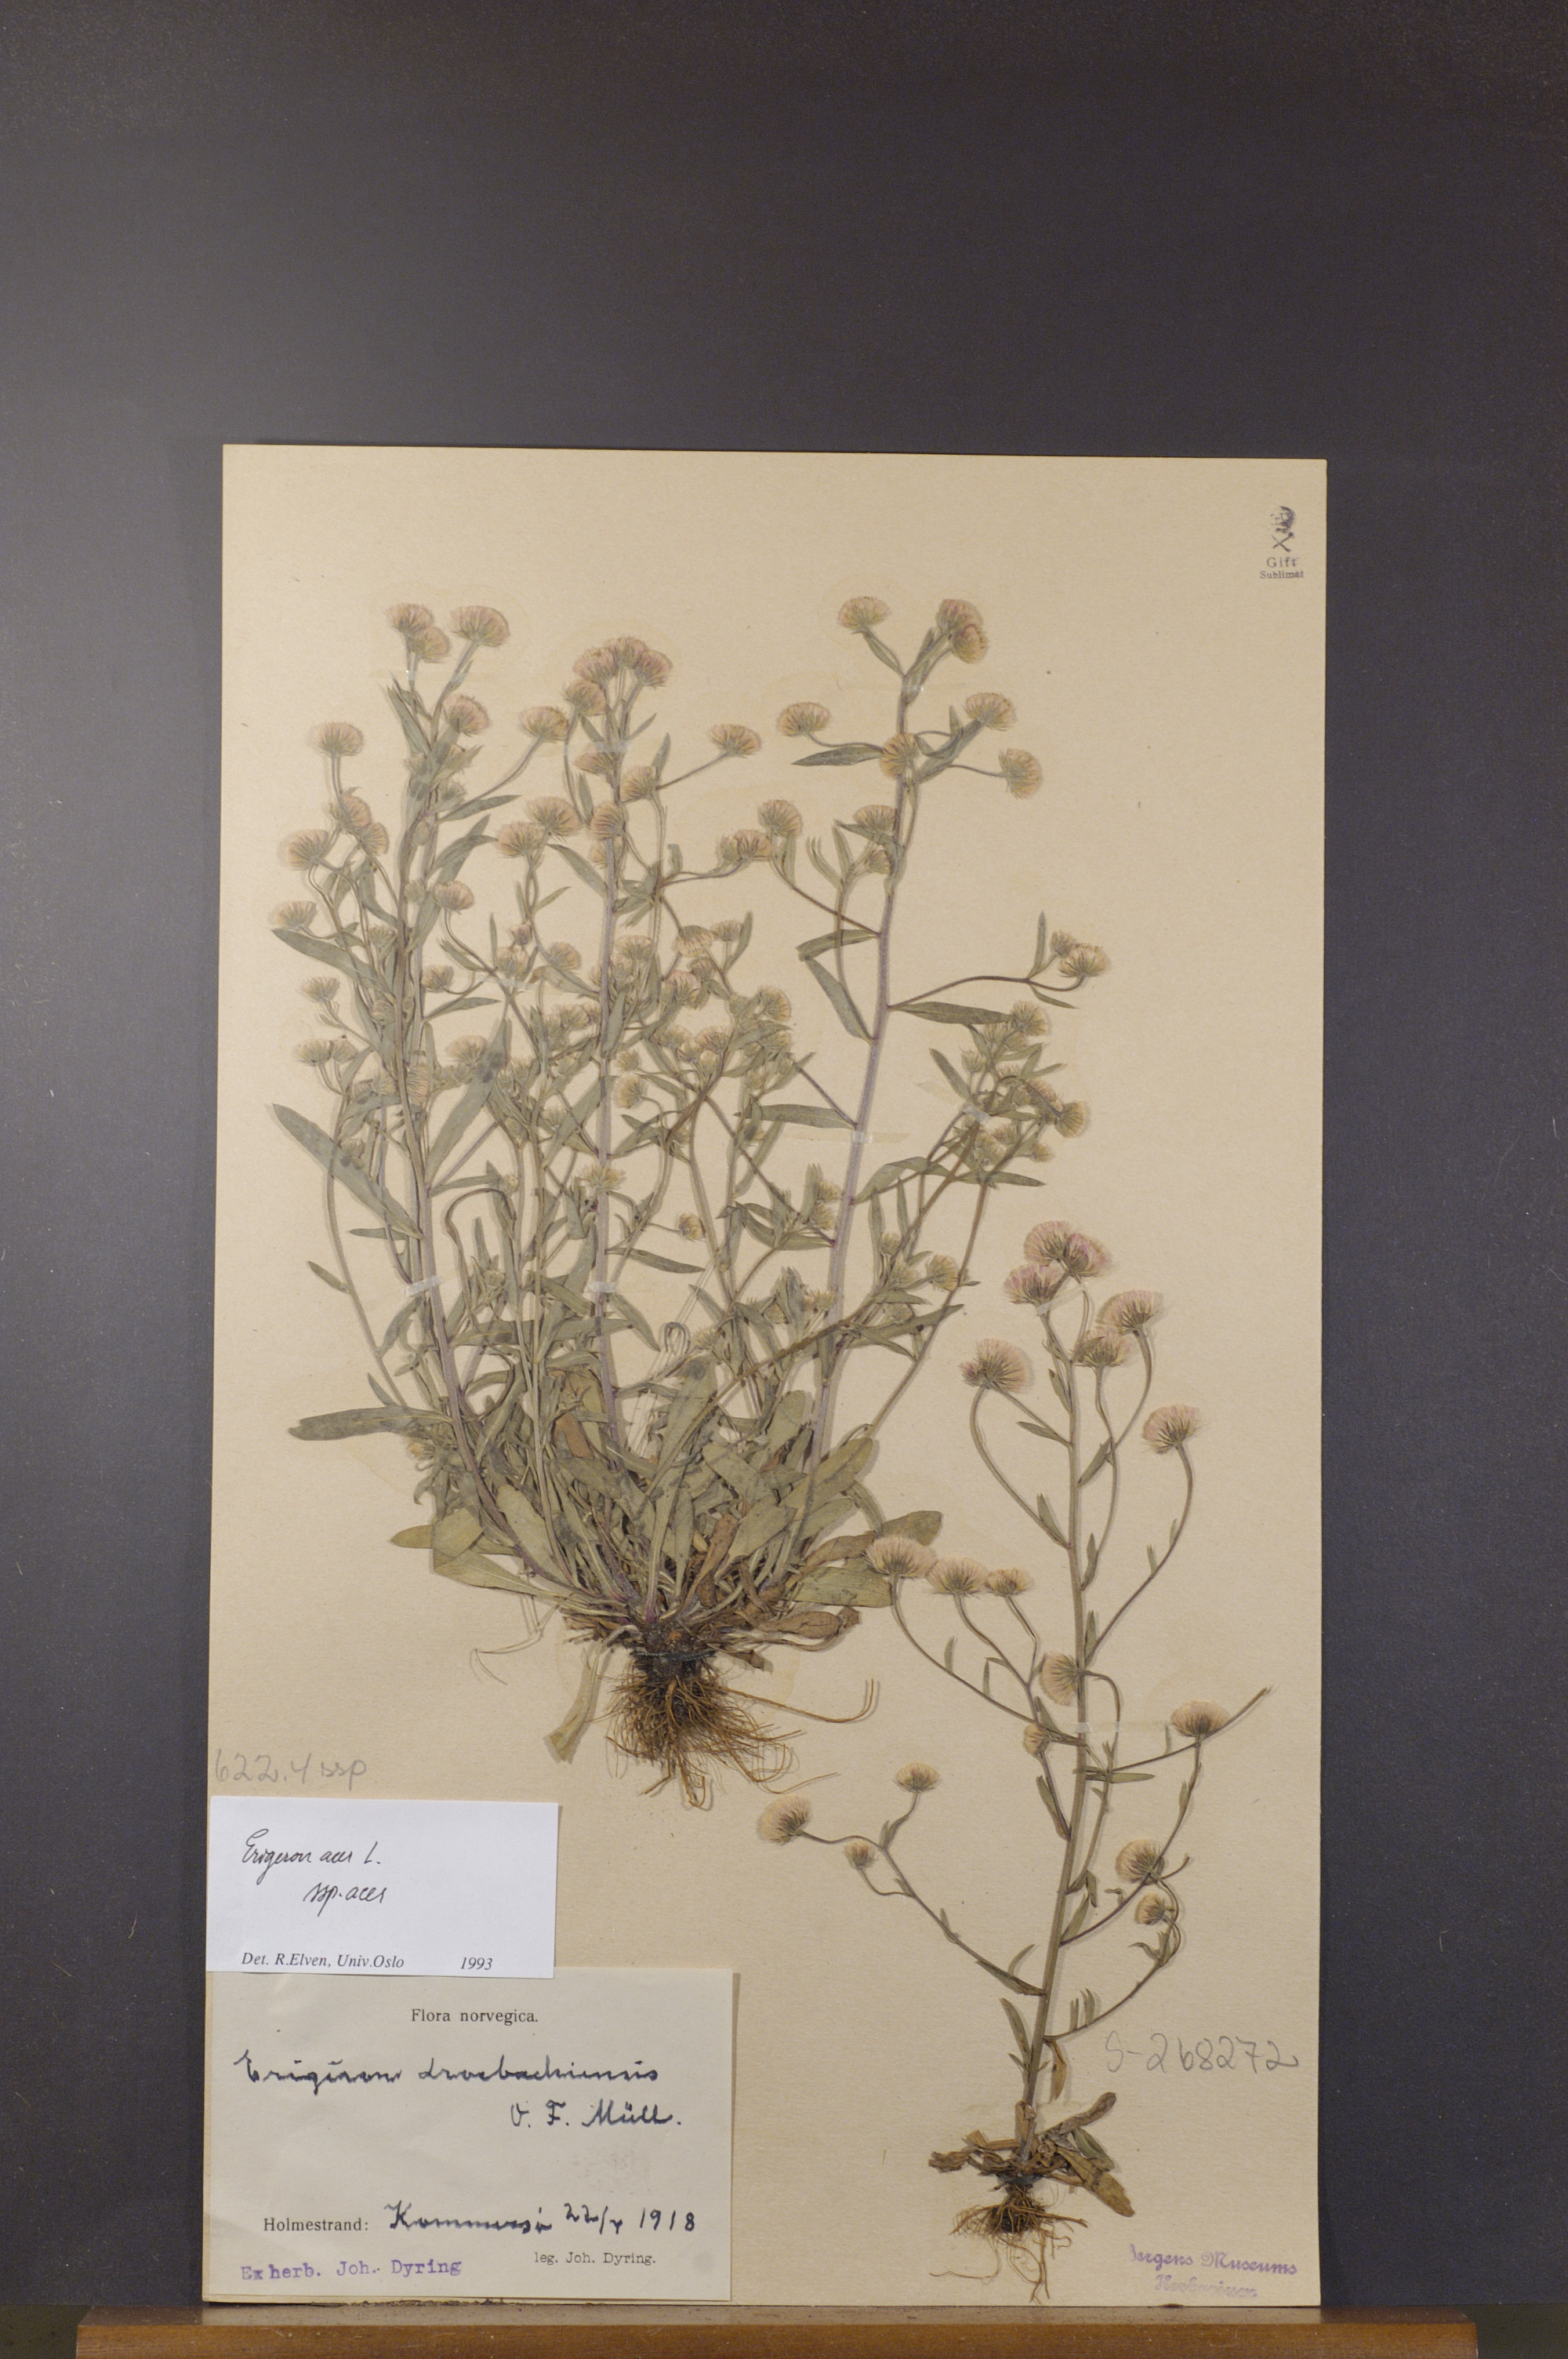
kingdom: Plantae
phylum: Tracheophyta
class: Magnoliopsida
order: Asterales
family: Asteraceae
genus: Erigeron
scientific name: Erigeron acris
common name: Blue fleabane
